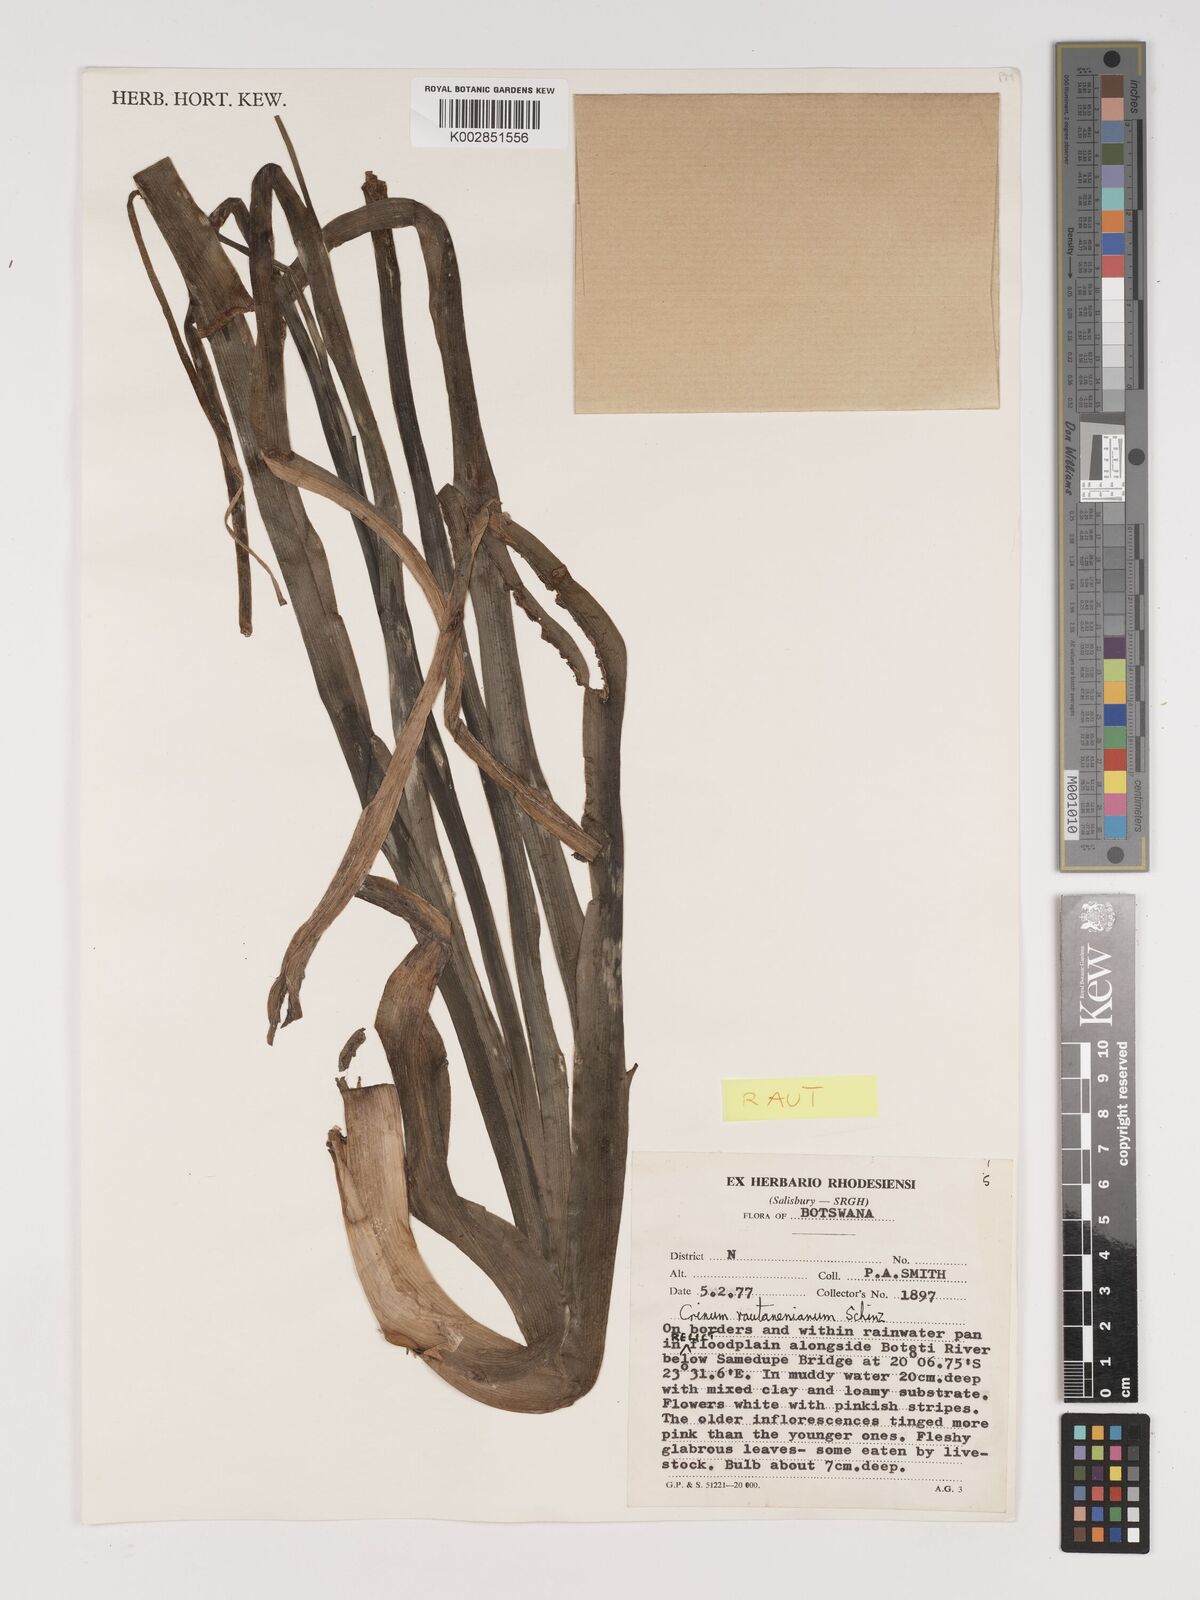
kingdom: Plantae
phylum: Tracheophyta
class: Liliopsida
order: Asparagales
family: Amaryllidaceae
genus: Crinum
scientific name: Crinum rautanenianum
